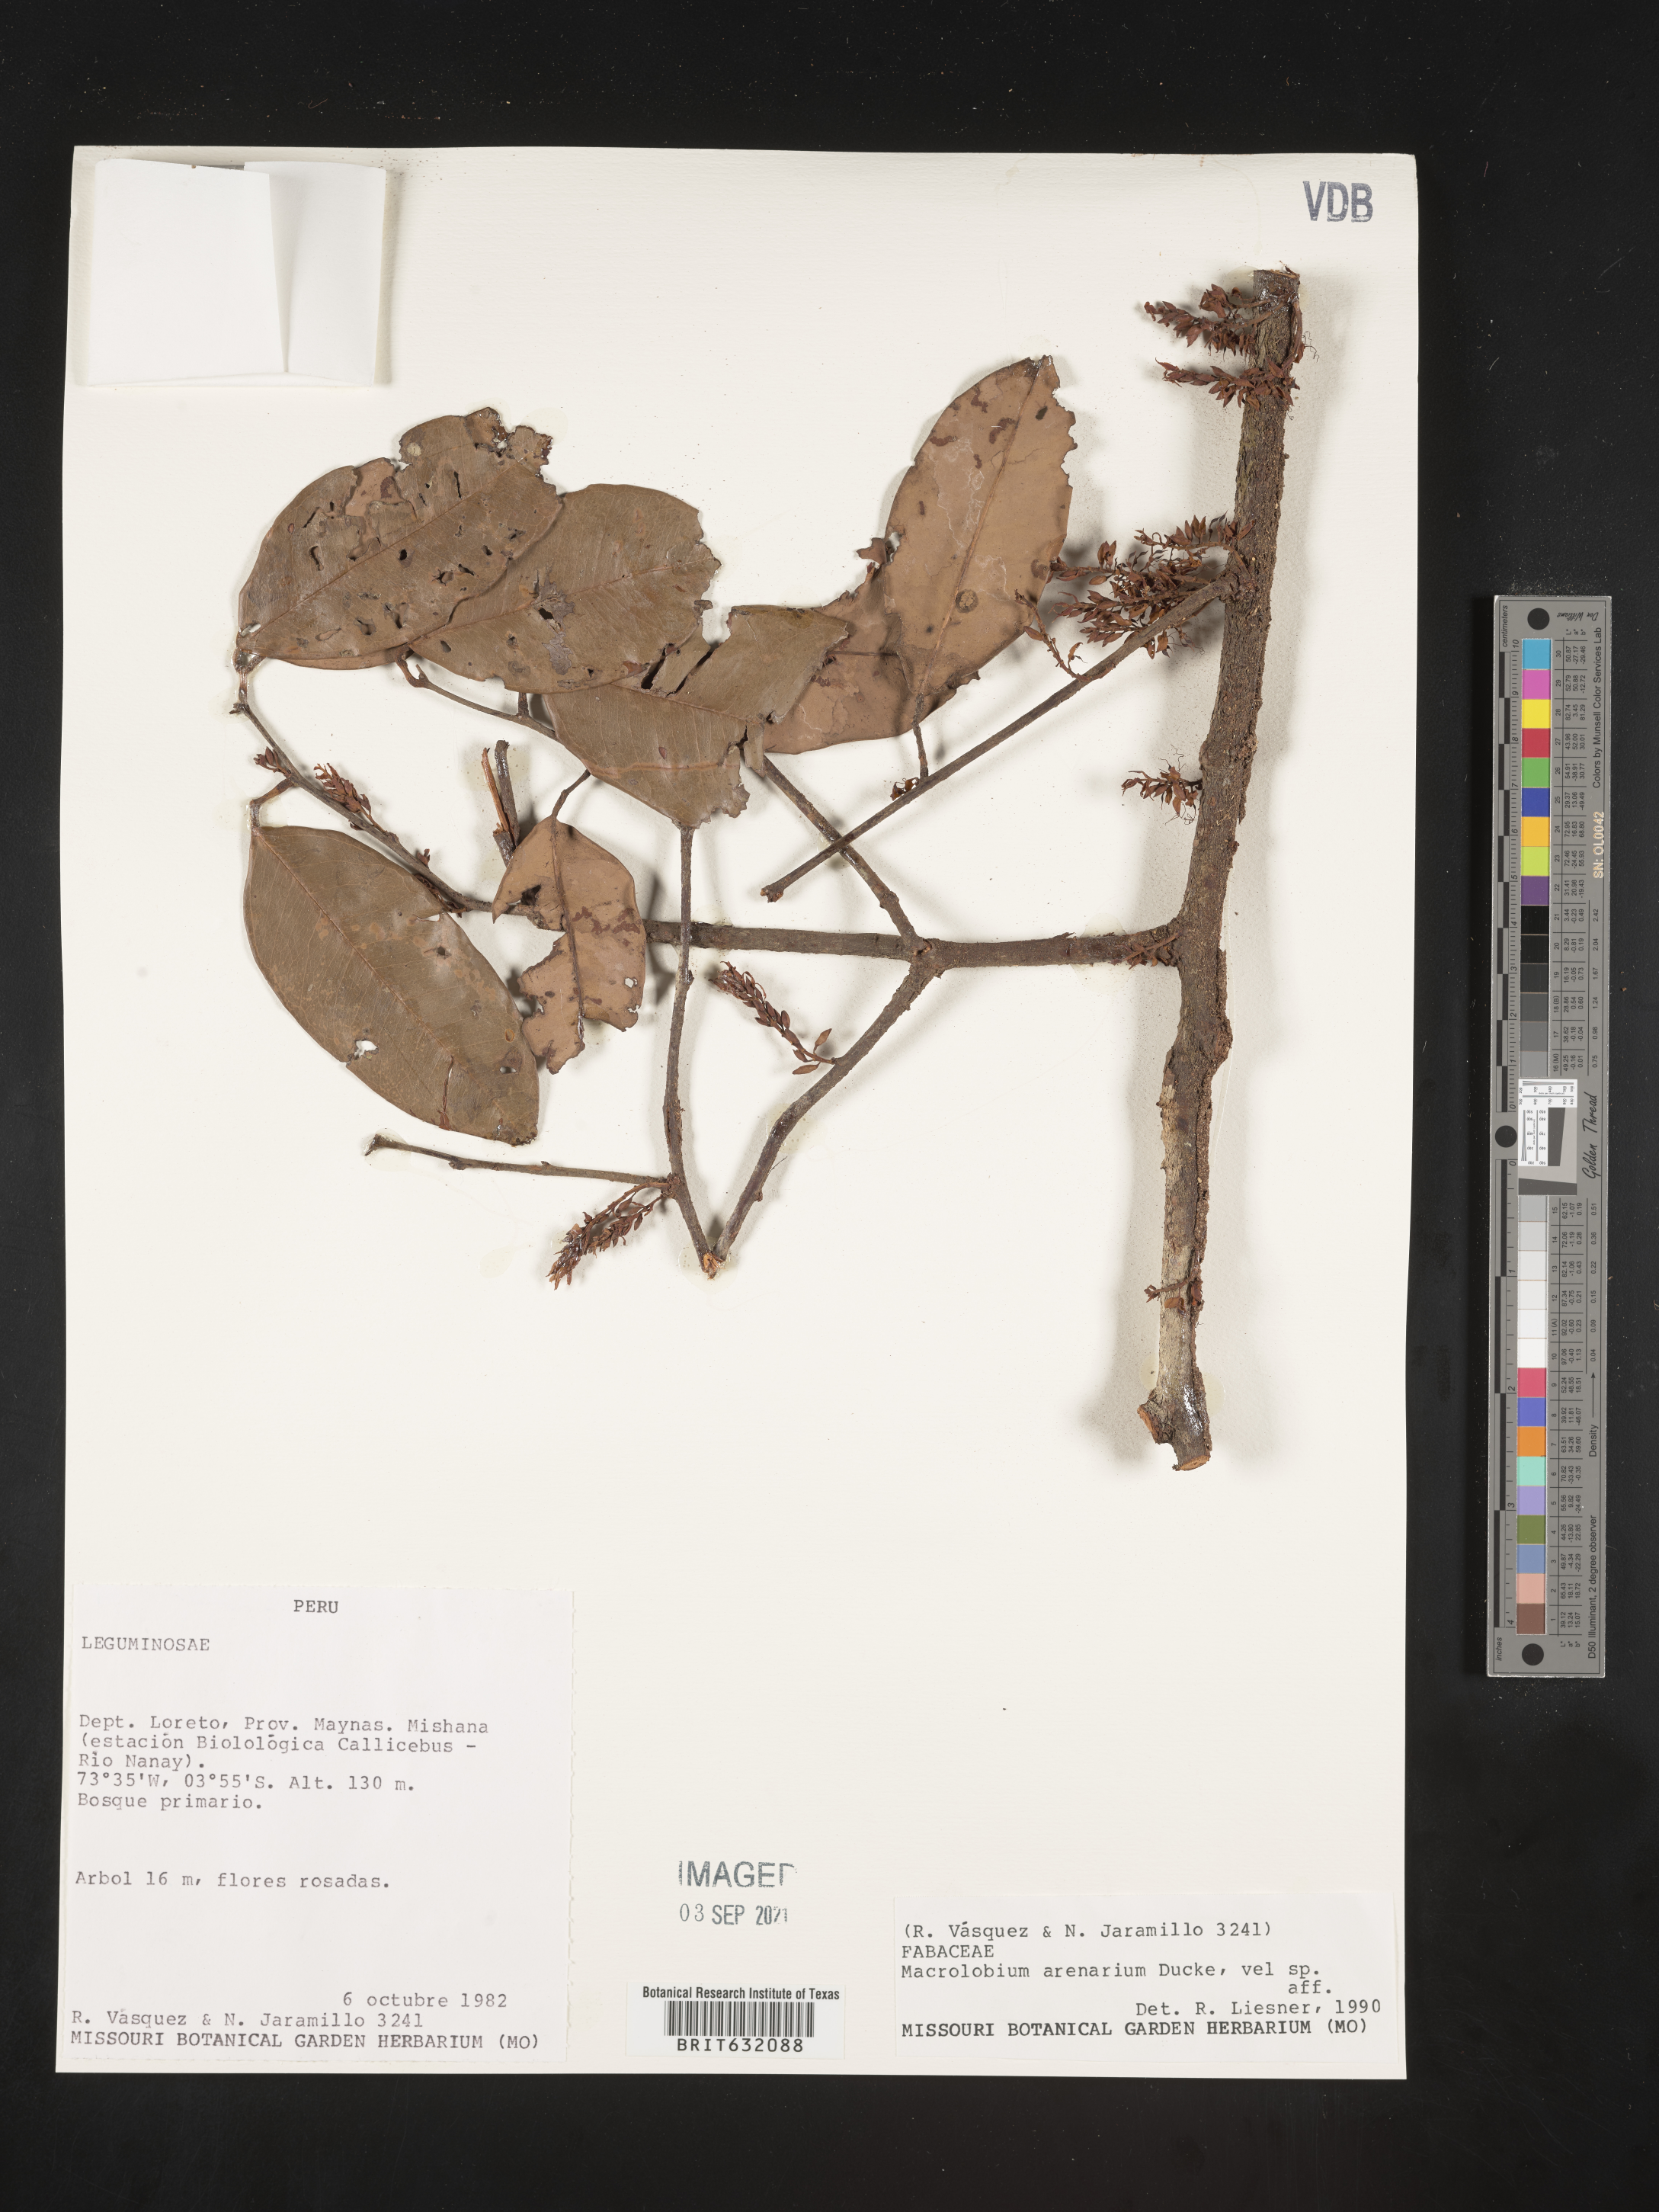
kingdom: Plantae
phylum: Tracheophyta
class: Magnoliopsida
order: Fabales
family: Fabaceae
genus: Macrolobium
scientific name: Macrolobium
